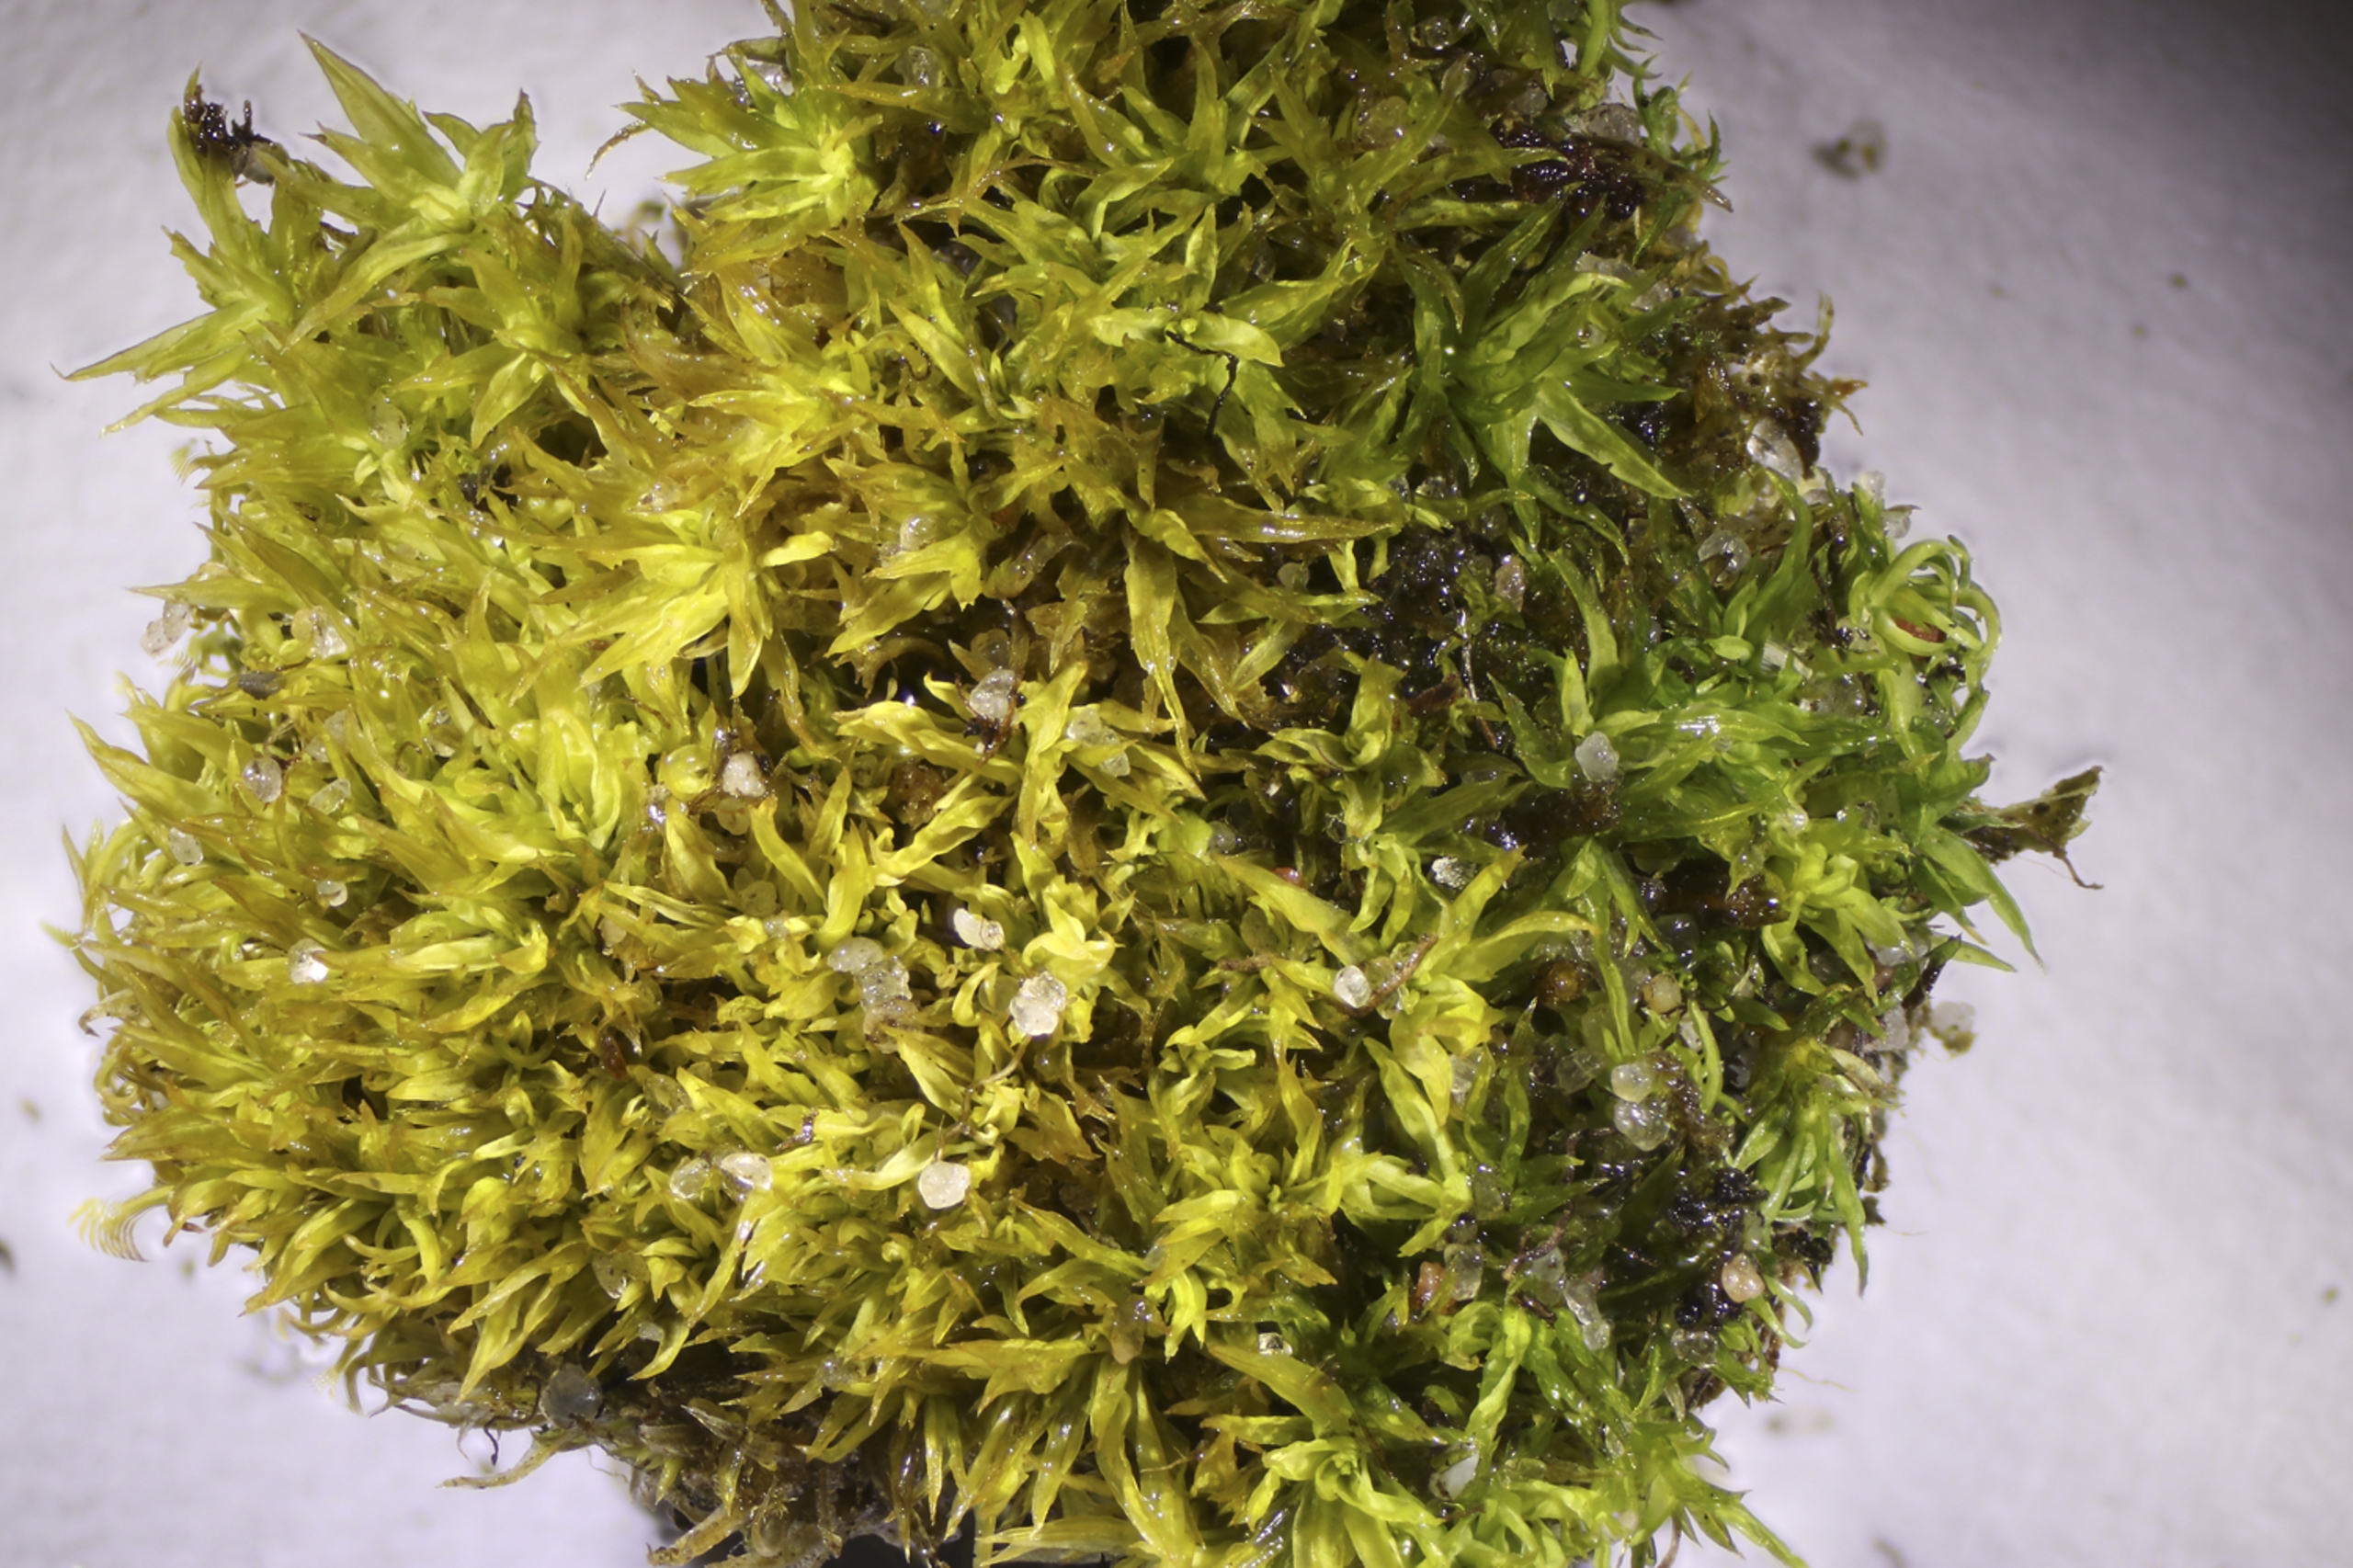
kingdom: Plantae
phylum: Bryophyta
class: Bryopsida
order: Pottiales
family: Pottiaceae
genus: Tortella
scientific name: Tortella flavovirens
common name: Sortgrøn snoblad
